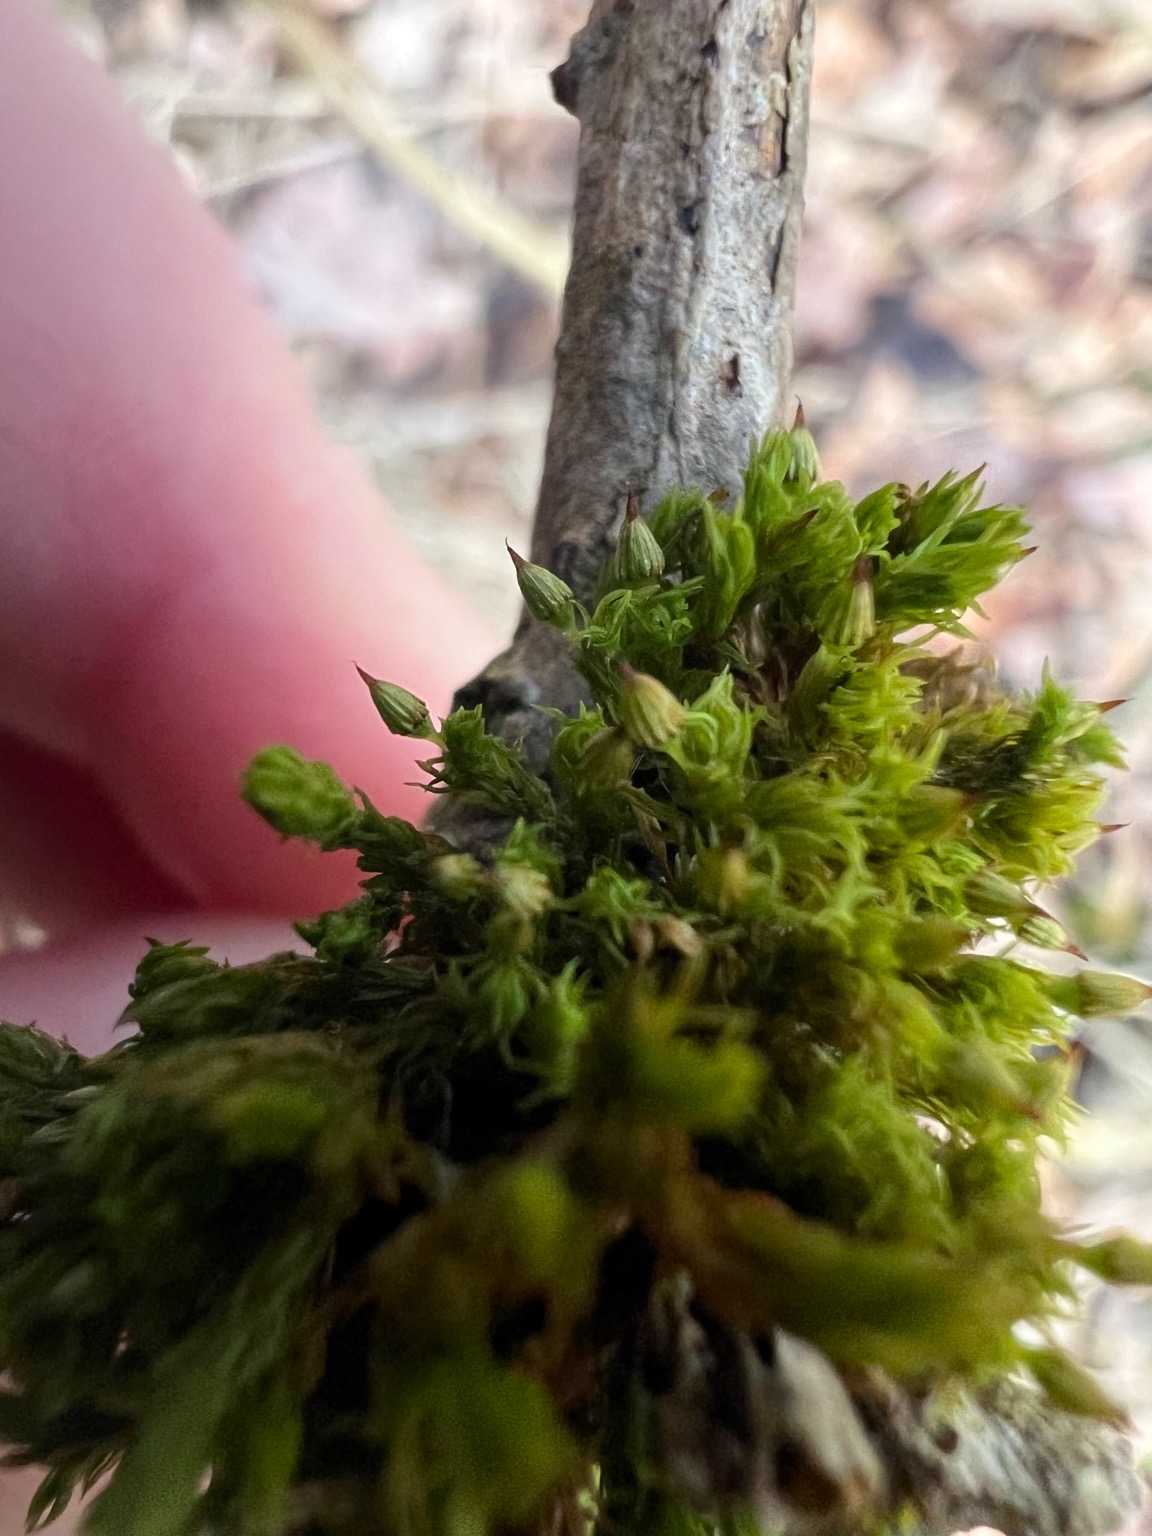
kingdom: Plantae
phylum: Bryophyta
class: Bryopsida
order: Orthotrichales
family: Orthotrichaceae
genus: Orthotrichum
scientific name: Orthotrichum pulchellum
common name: Smuk furehætte
